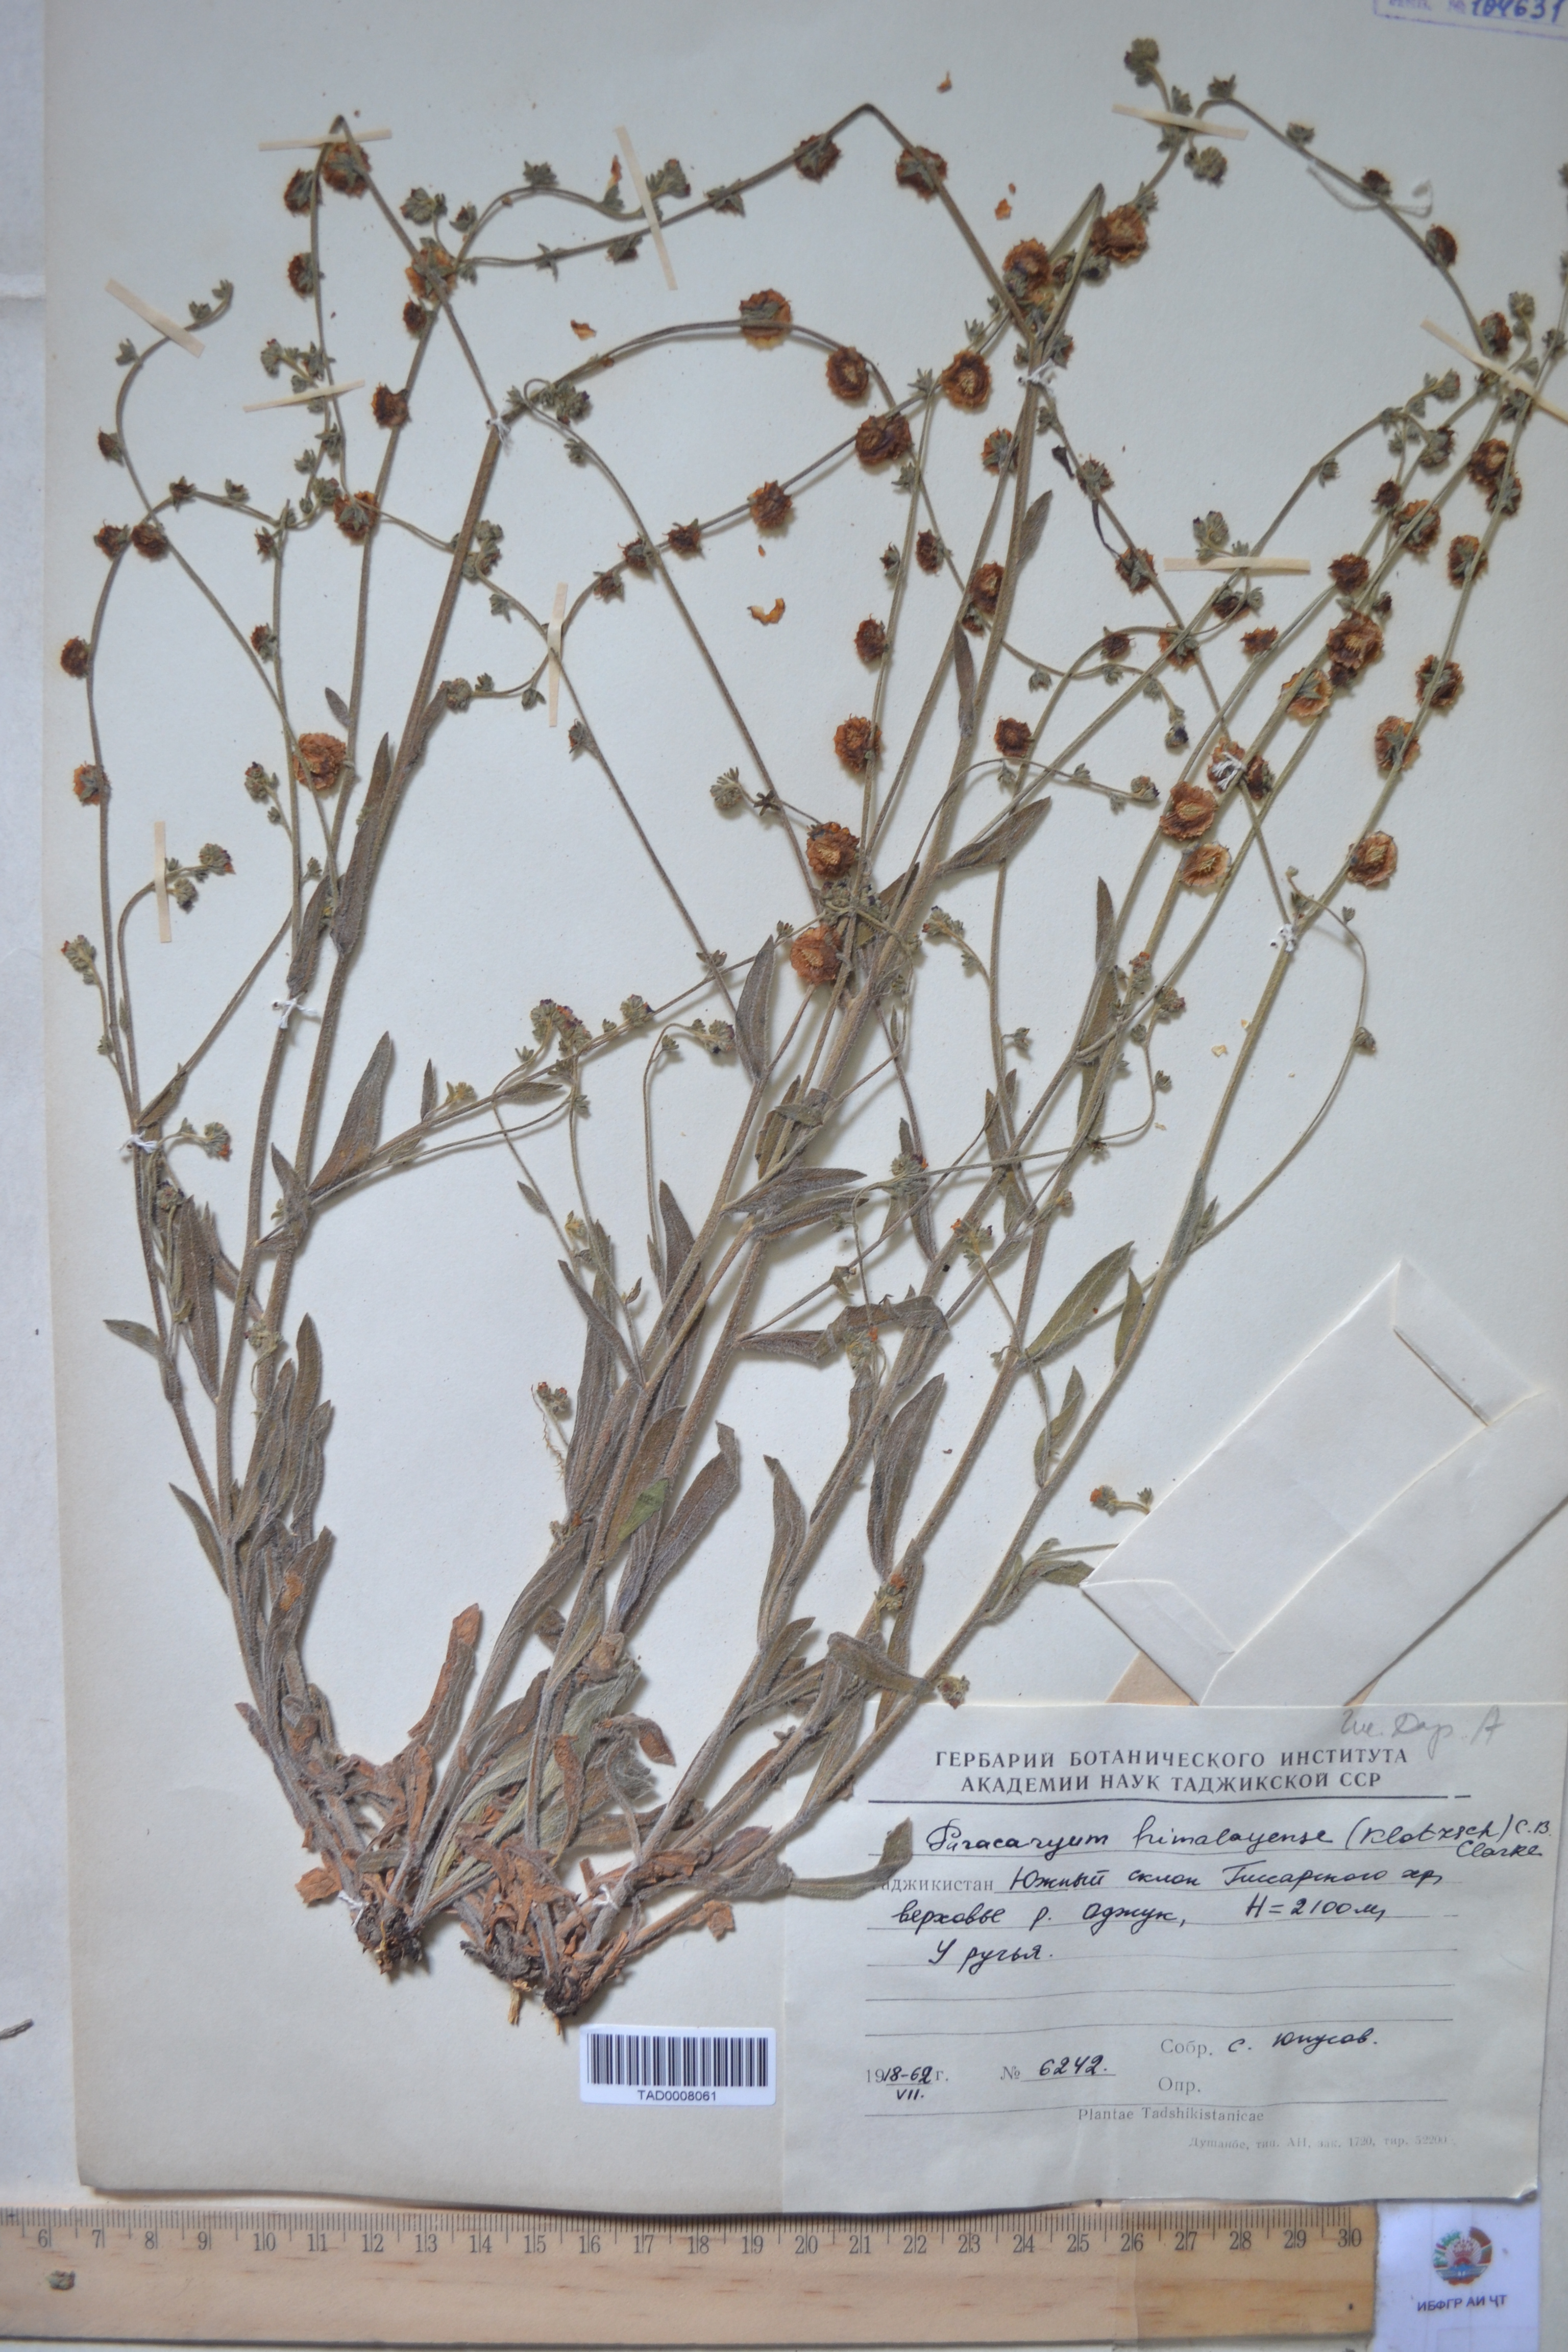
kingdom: Plantae
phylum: Tracheophyta
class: Magnoliopsida
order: Boraginales
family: Boraginaceae
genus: Paracaryum
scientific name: Paracaryum himalayense
